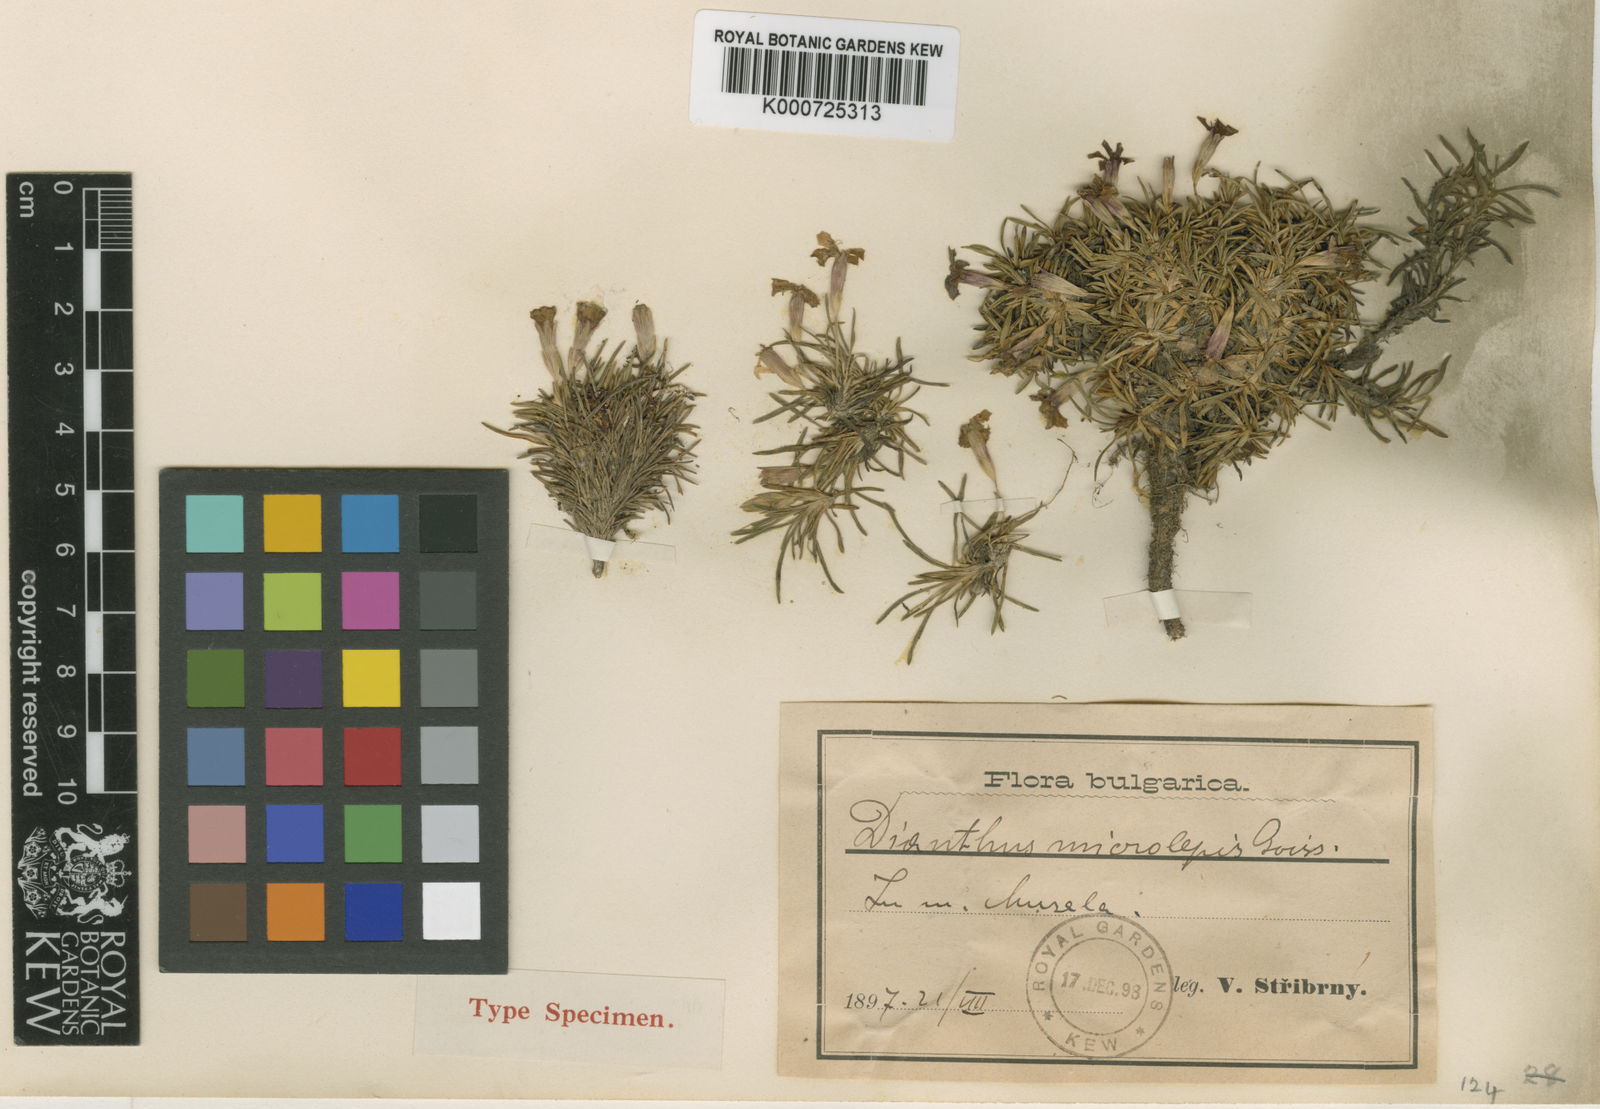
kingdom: Plantae
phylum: Tracheophyta
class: Magnoliopsida
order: Caryophyllales
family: Caryophyllaceae
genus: Dianthus
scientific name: Dianthus microlepis
